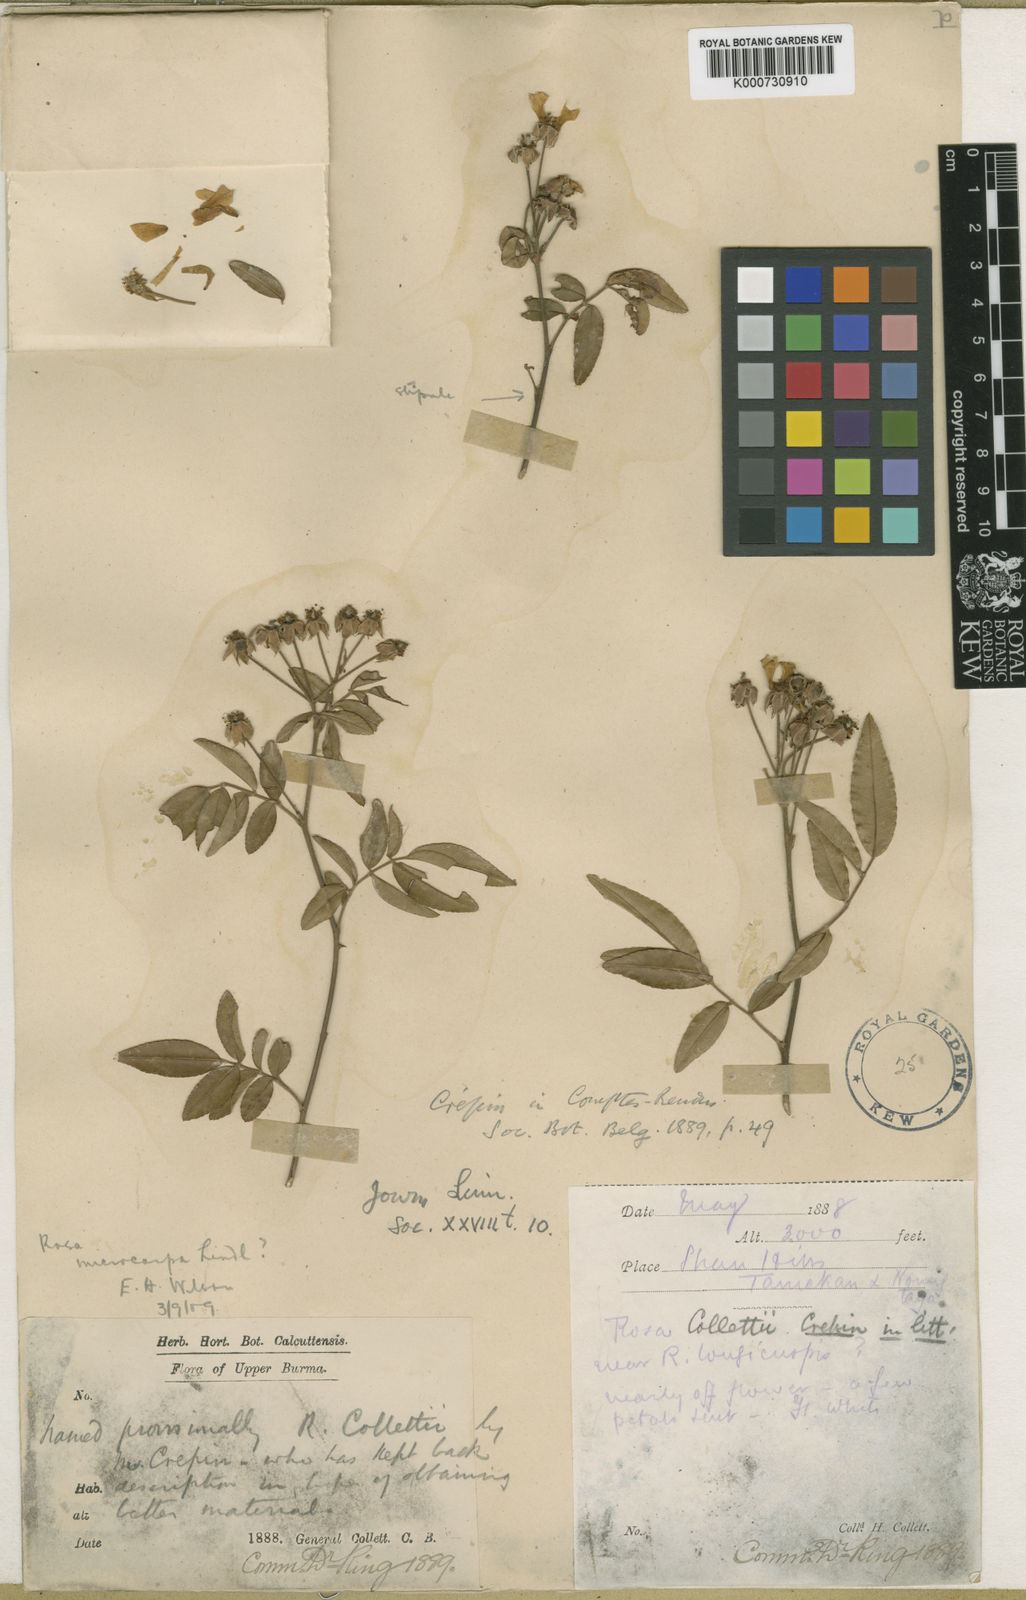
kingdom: Plantae
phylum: Tracheophyta
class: Magnoliopsida
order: Rosales
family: Rosaceae
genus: Rosa
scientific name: Rosa
